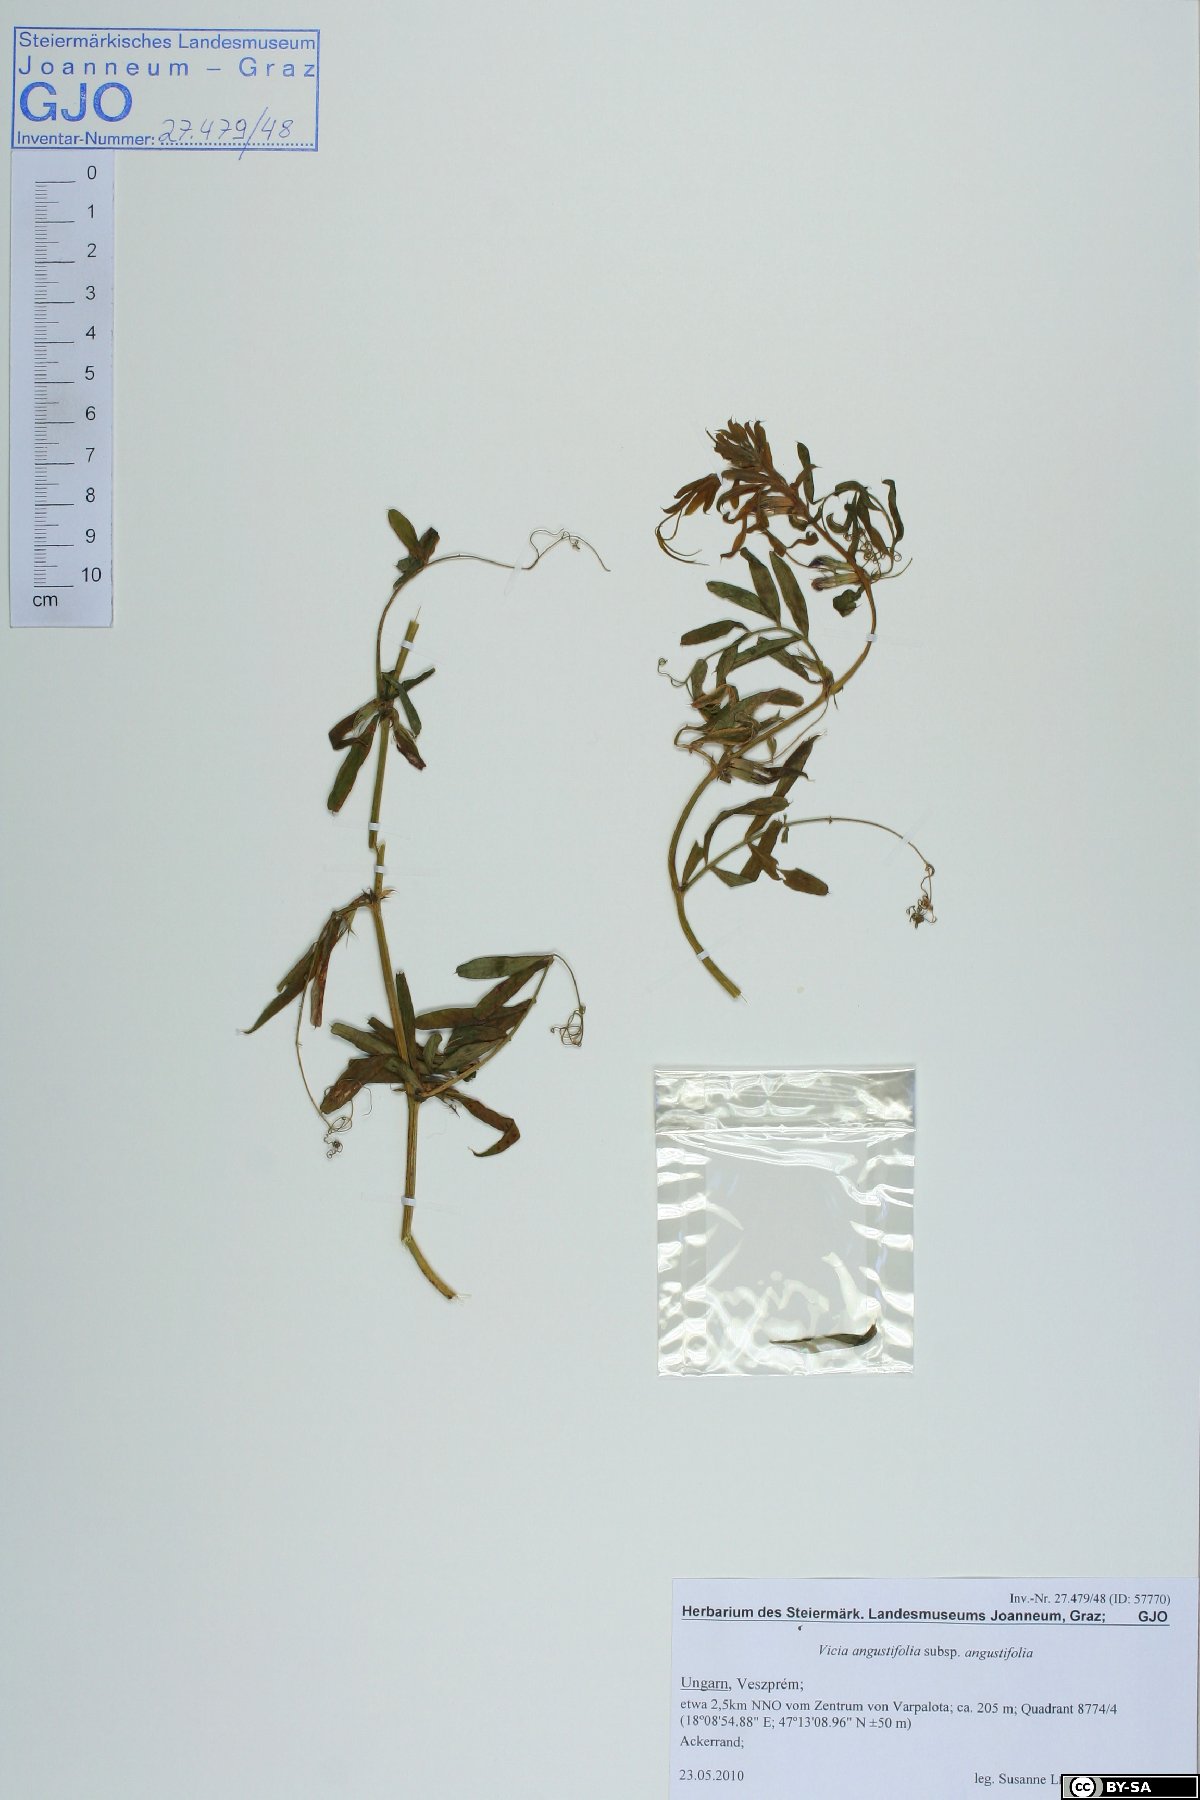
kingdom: Plantae
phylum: Tracheophyta
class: Magnoliopsida
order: Fabales
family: Fabaceae
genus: Vicia
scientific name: Vicia sativa
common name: Garden vetch
